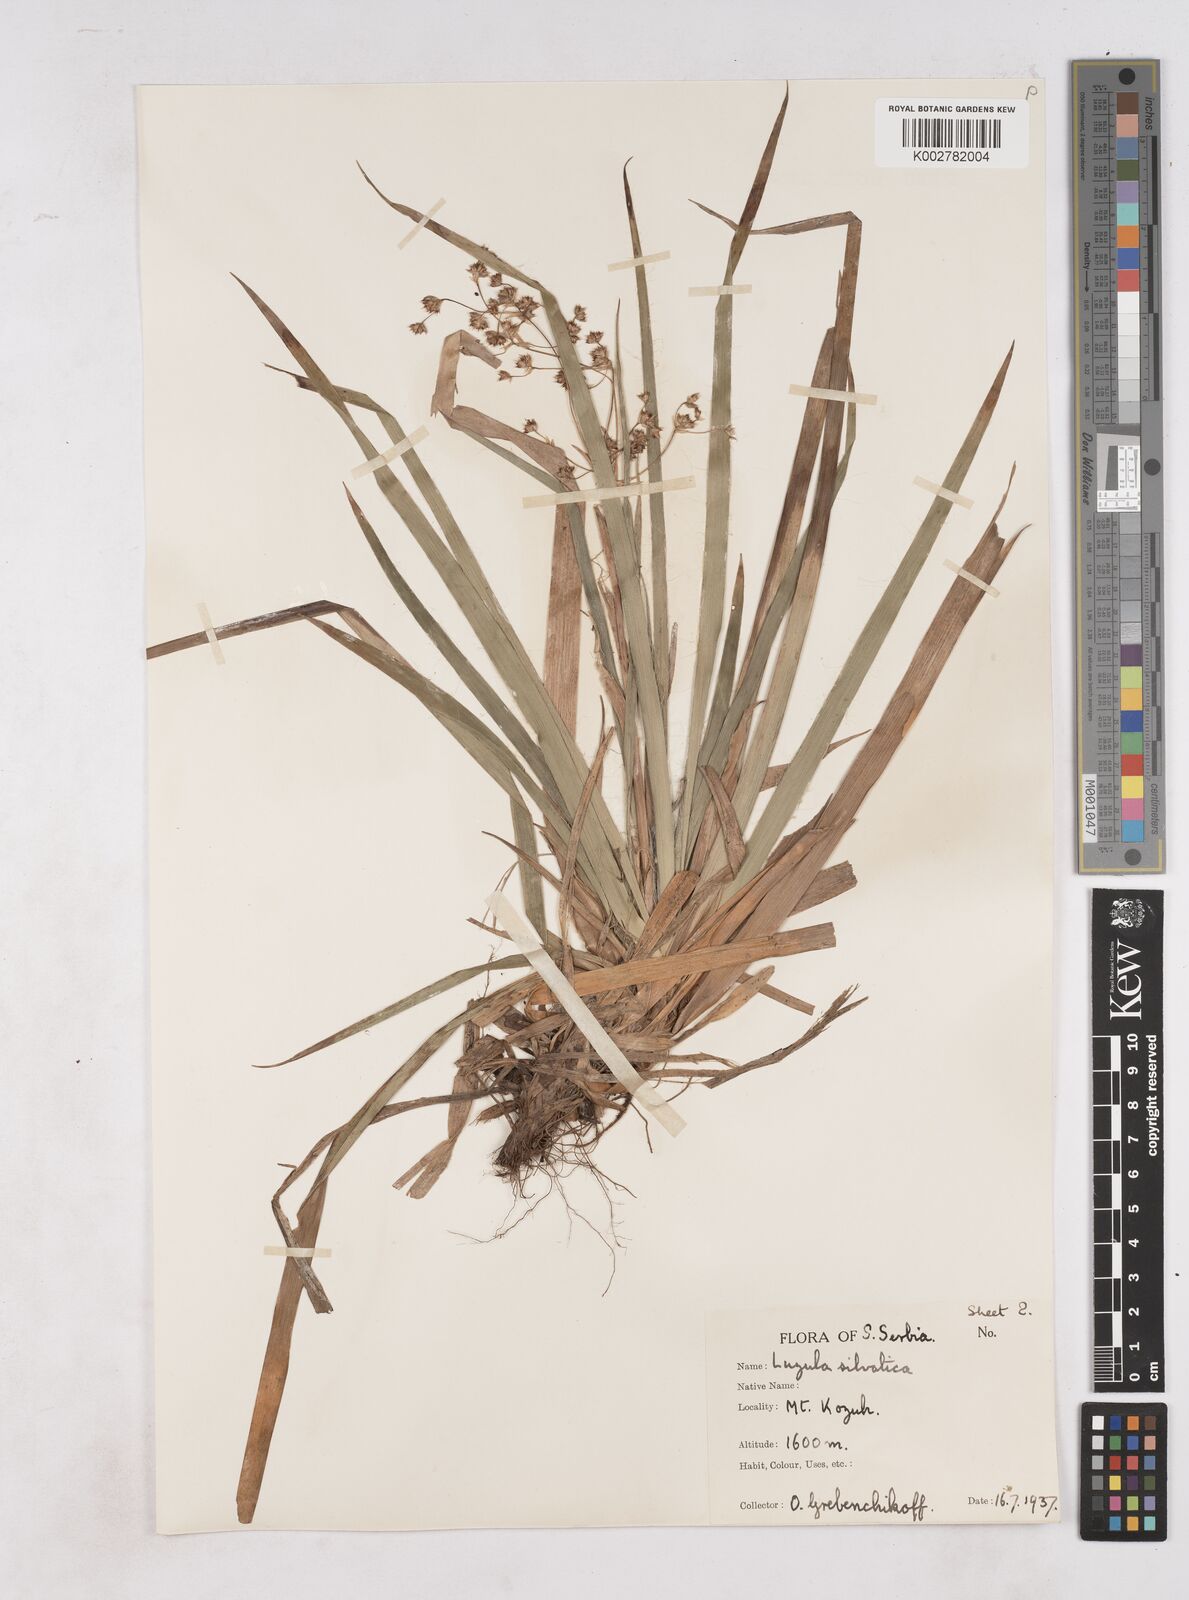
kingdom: Plantae
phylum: Tracheophyta
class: Liliopsida
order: Poales
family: Juncaceae
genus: Luzula
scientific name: Luzula sylvatica
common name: Great wood-rush
